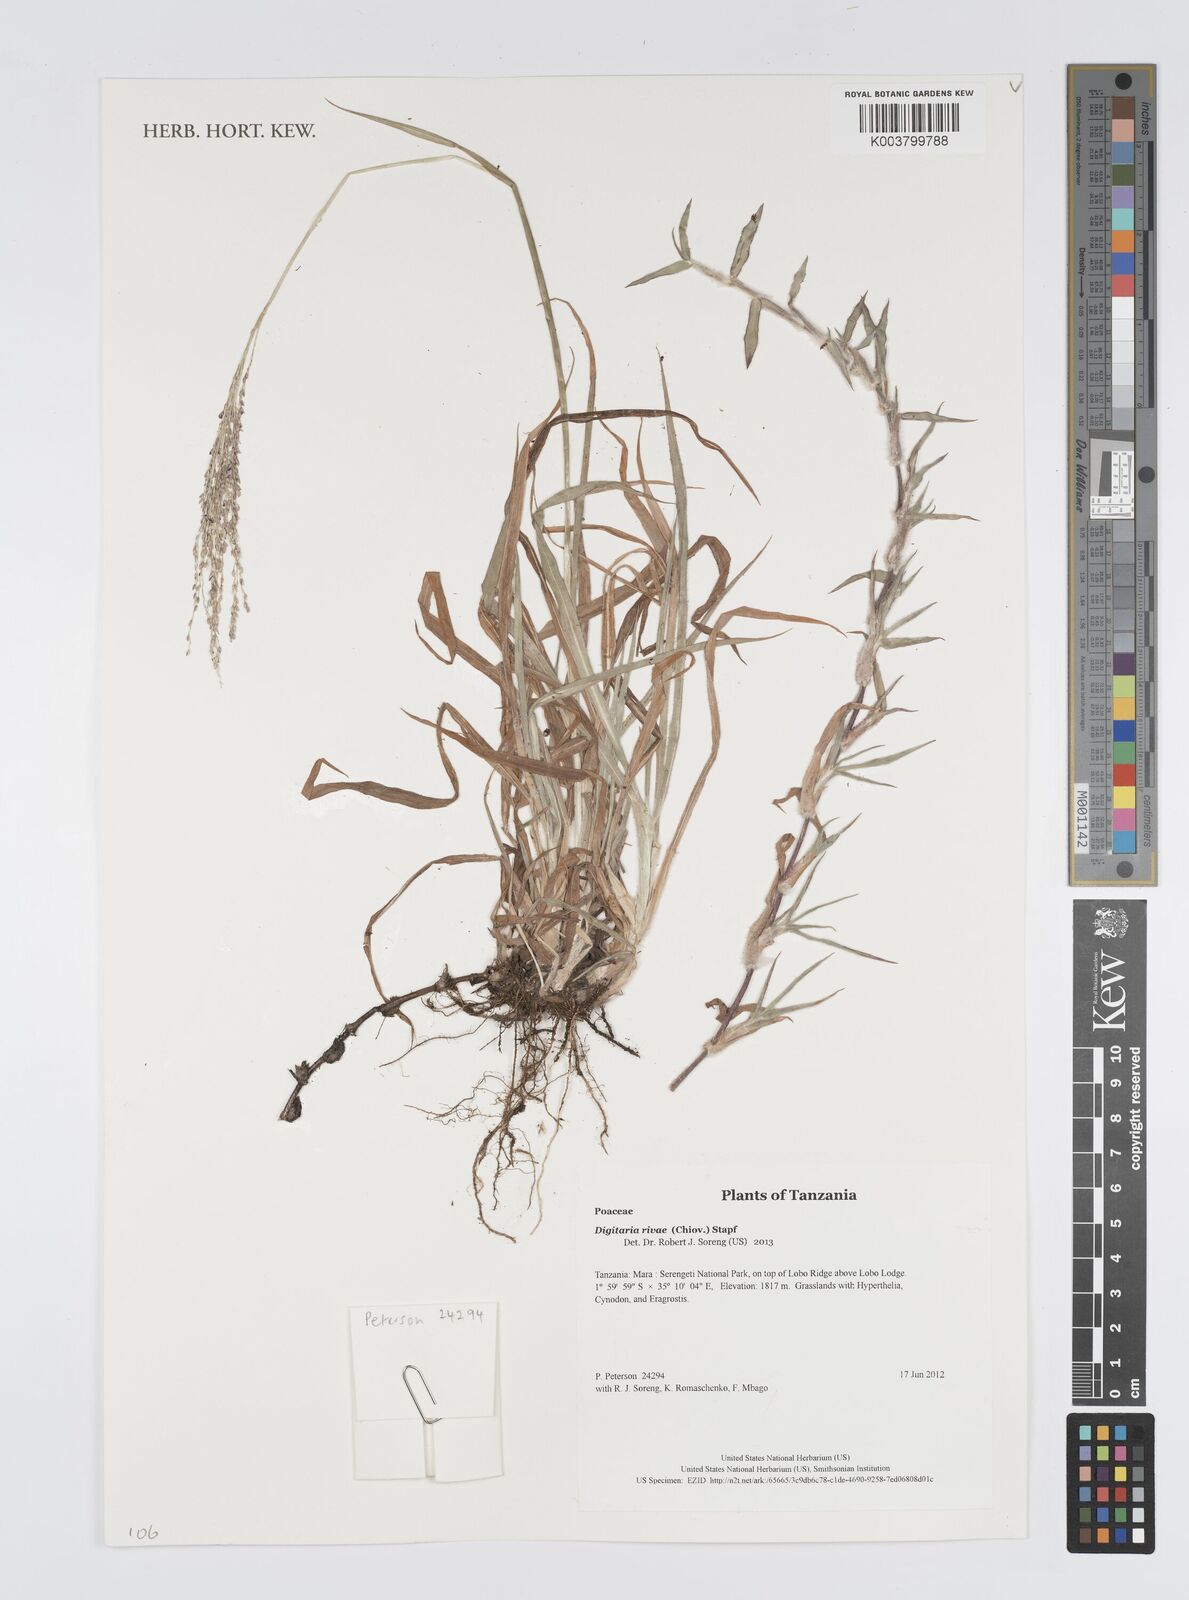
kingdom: Plantae
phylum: Tracheophyta
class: Liliopsida
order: Poales
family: Poaceae
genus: Digitaria
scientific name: Digitaria rivae
